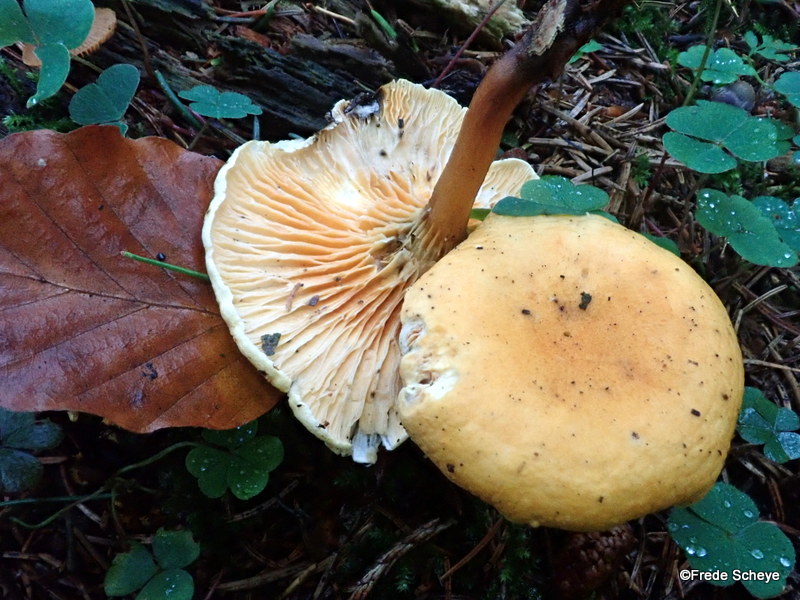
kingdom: Fungi
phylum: Basidiomycota
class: Agaricomycetes
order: Boletales
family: Hygrophoropsidaceae
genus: Hygrophoropsis
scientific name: Hygrophoropsis aurantiaca
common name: almindelig orangekantarel
